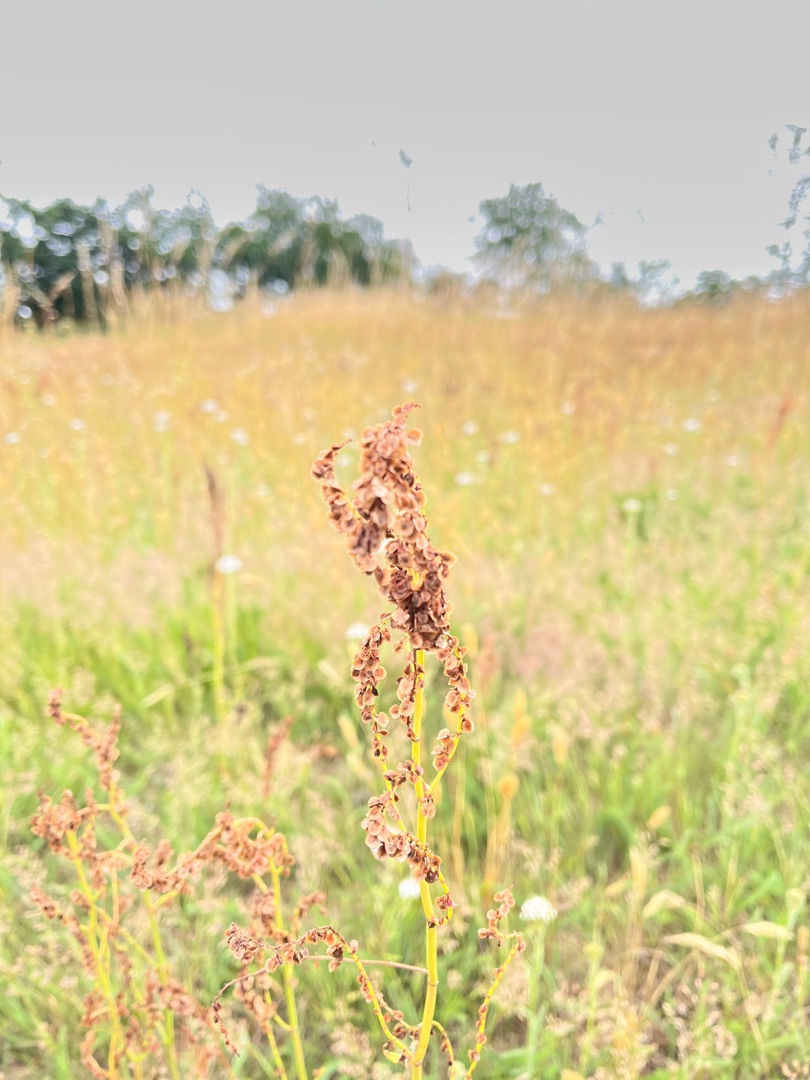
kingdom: Plantae
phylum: Tracheophyta
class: Magnoliopsida
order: Caryophyllales
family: Polygonaceae
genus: Rumex
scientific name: Rumex acetosa
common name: Almindelig syre
